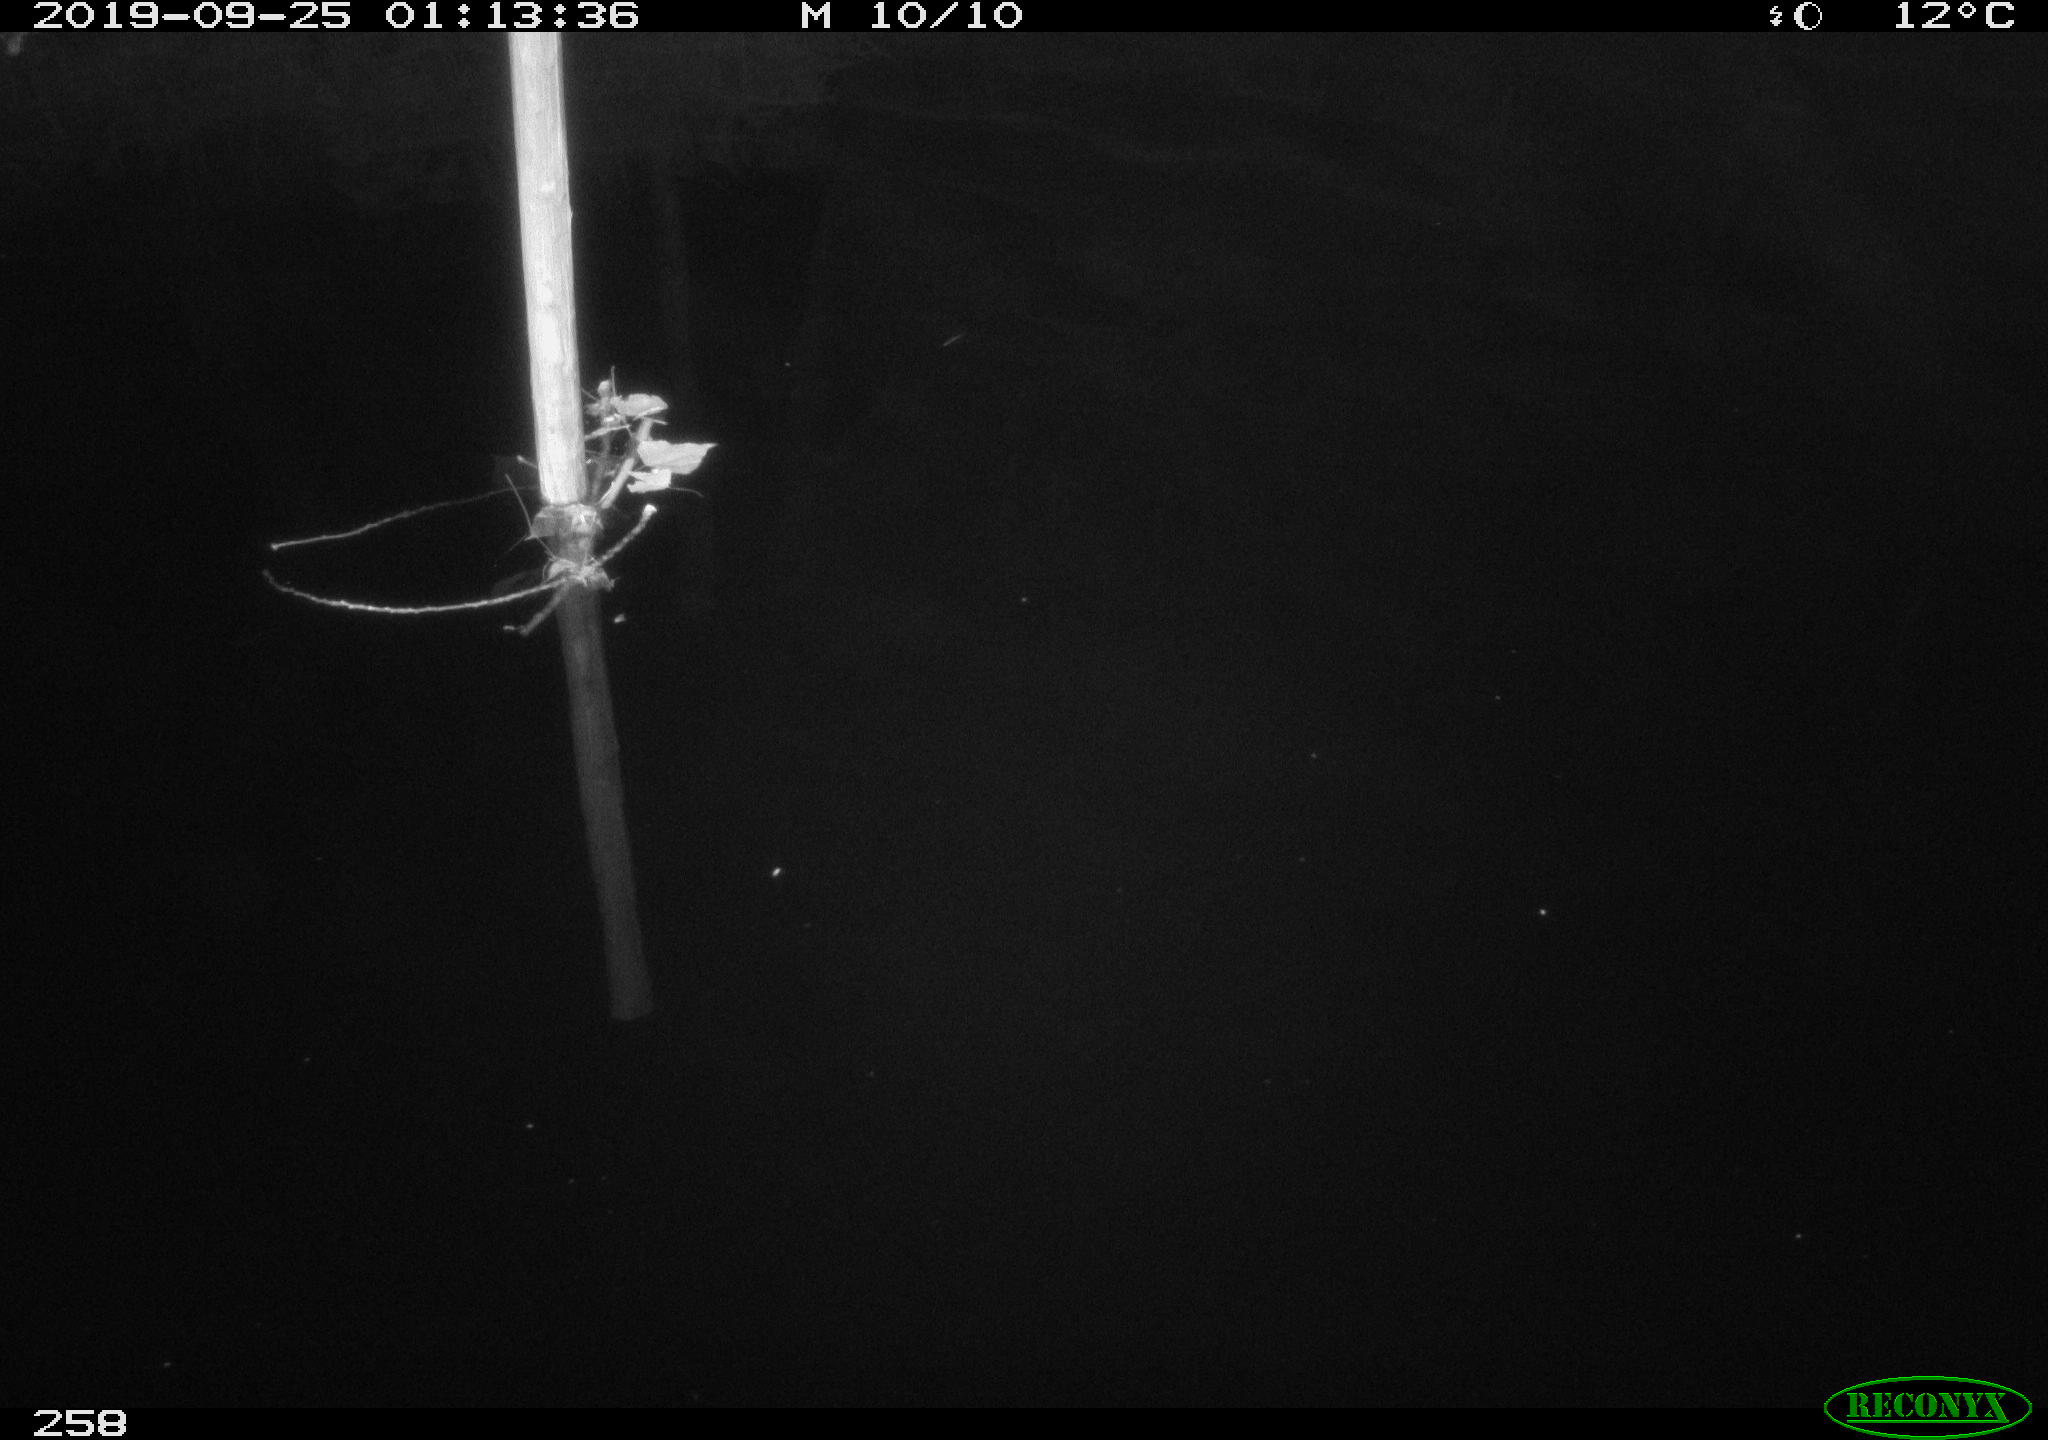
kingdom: Animalia
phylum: Chordata
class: Aves
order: Anseriformes
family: Anatidae
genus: Anas
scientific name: Anas platyrhynchos
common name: Mallard
